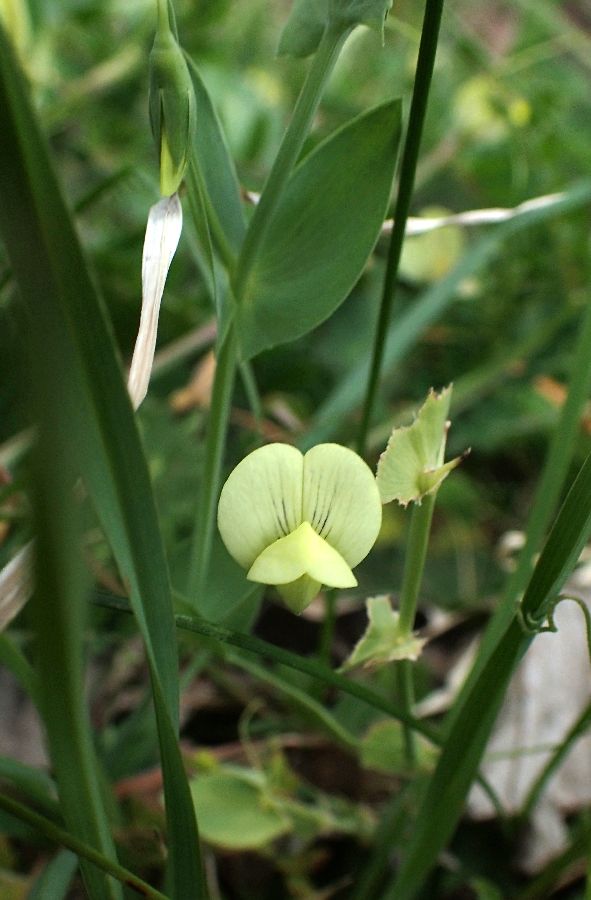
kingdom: Plantae
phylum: Tracheophyta
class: Magnoliopsida
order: Fabales
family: Fabaceae
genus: Lathyrus
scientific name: Lathyrus aphaca
